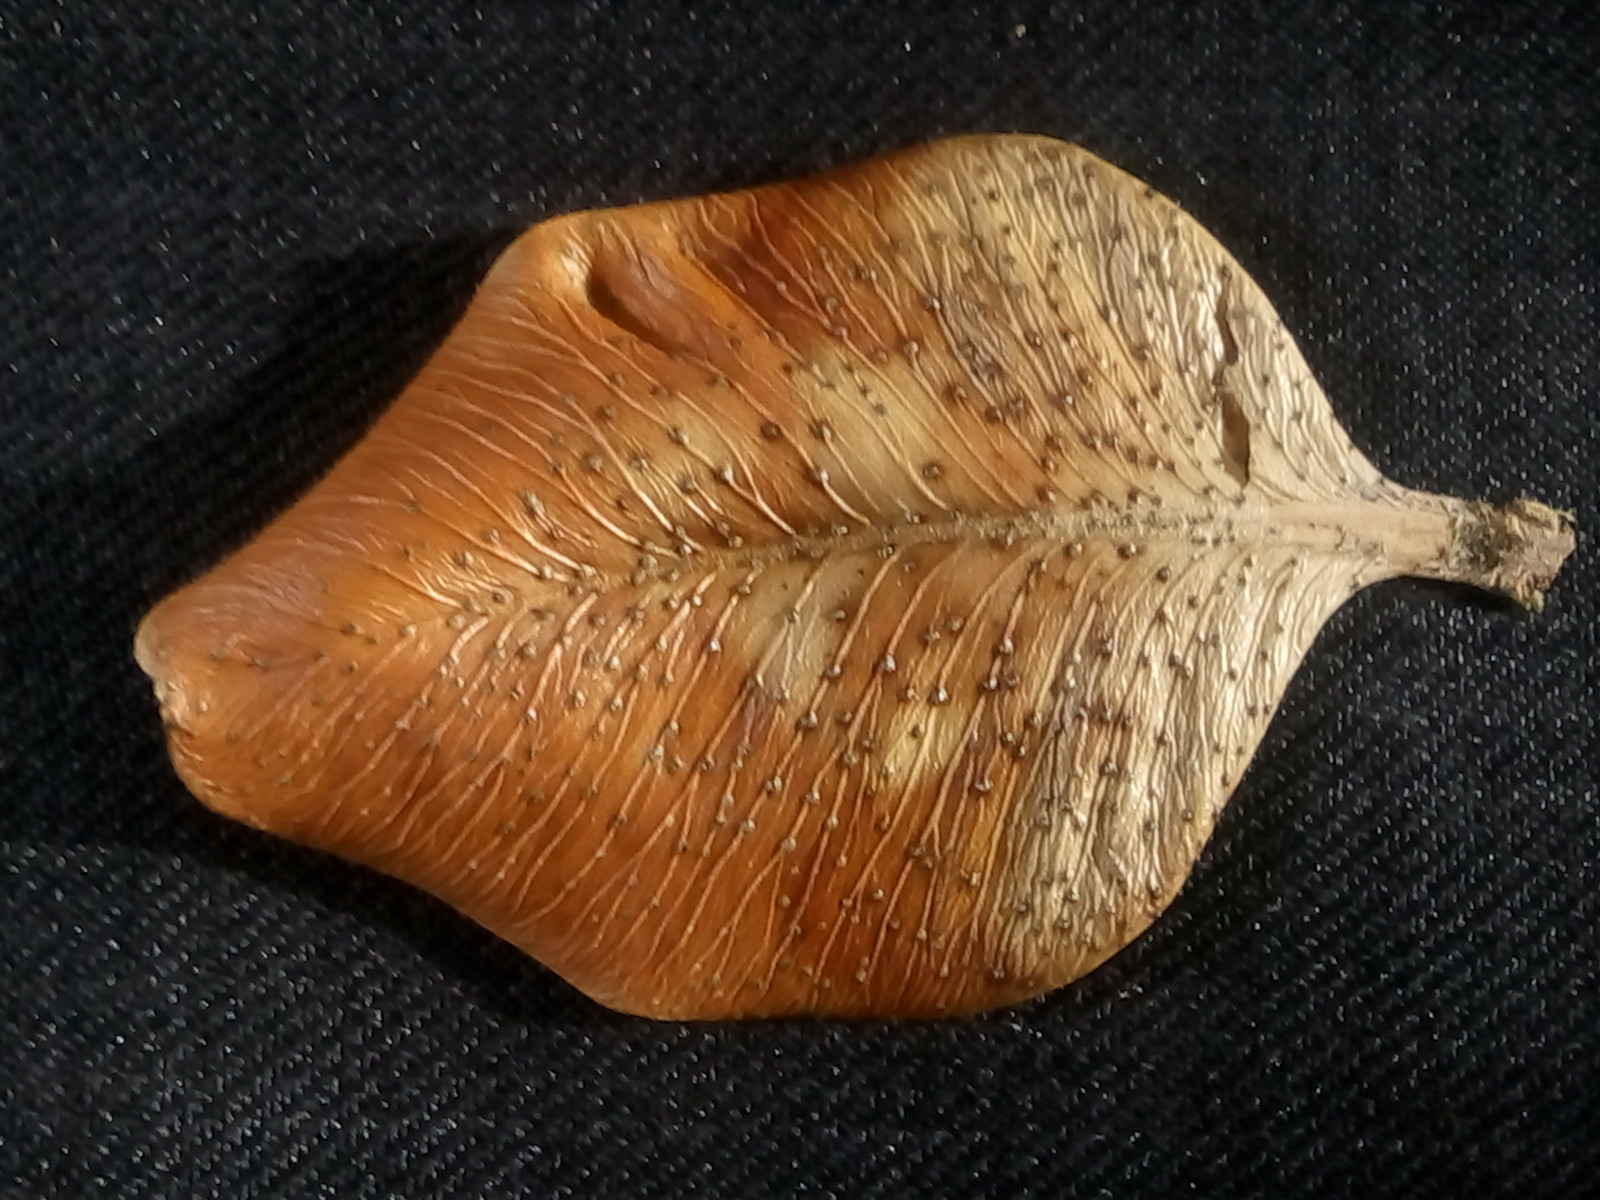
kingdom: Fungi
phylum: Ascomycota
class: Sordariomycetes
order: Diaporthales
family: Diaporthaceae
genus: Diaporthe
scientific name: Diaporthe stictica
